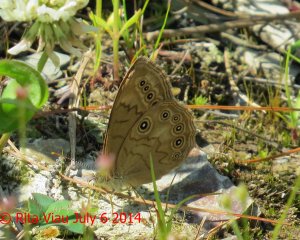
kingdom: Animalia
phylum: Arthropoda
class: Insecta
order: Lepidoptera
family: Nymphalidae
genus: Lethe
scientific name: Lethe eurydice
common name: Eyed Brown
